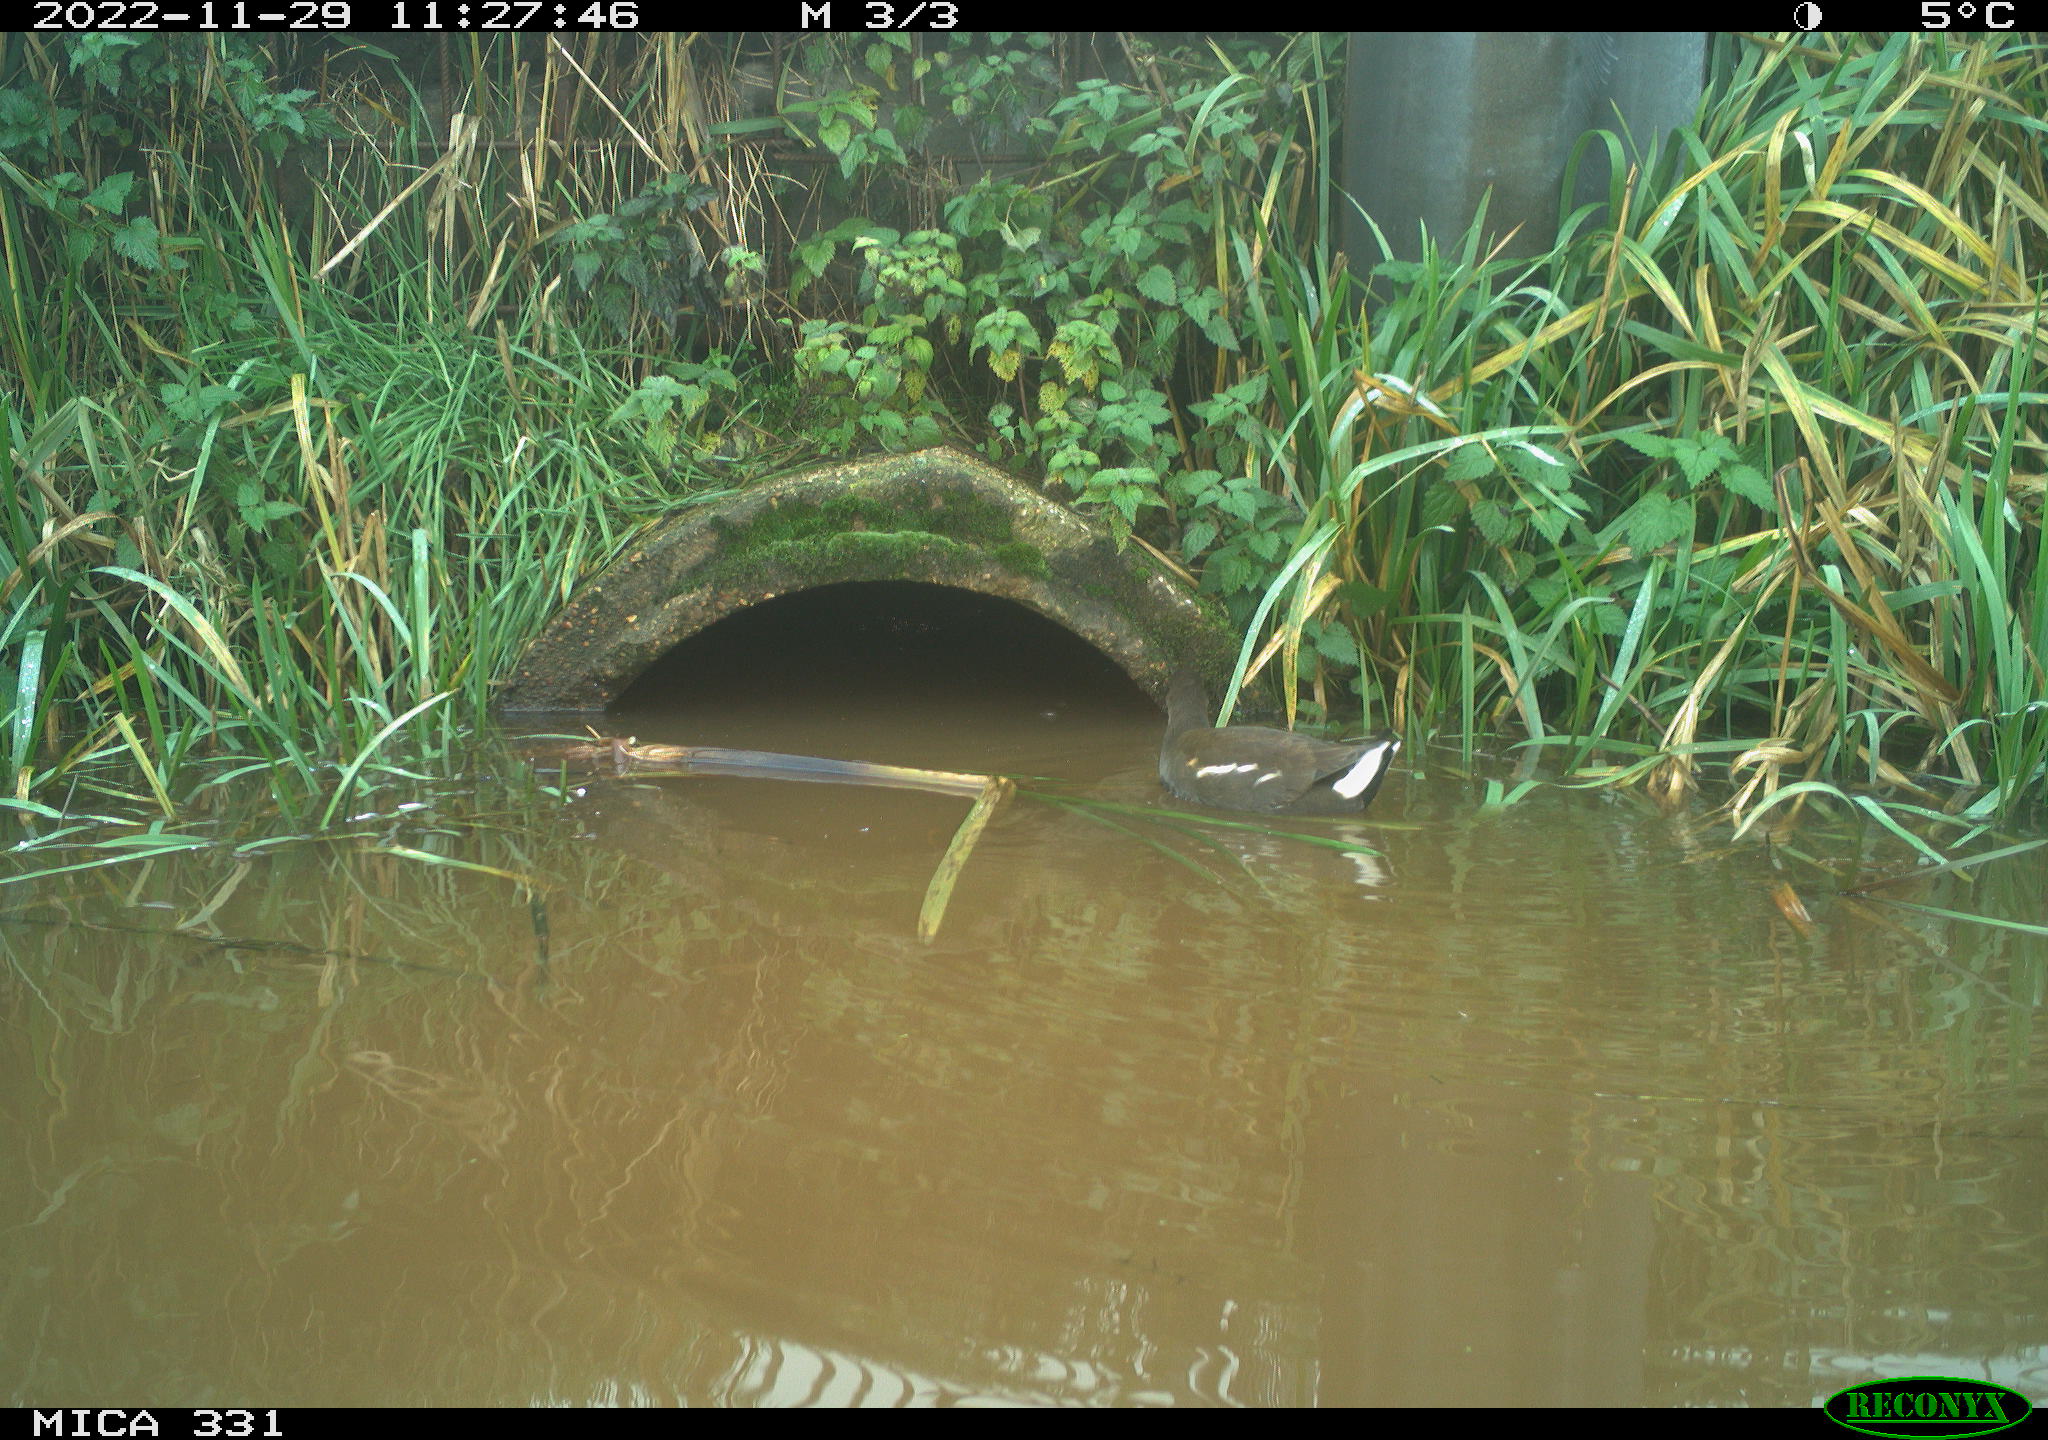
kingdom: Animalia
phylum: Chordata
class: Aves
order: Gruiformes
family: Rallidae
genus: Gallinula
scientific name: Gallinula chloropus
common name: Common moorhen
